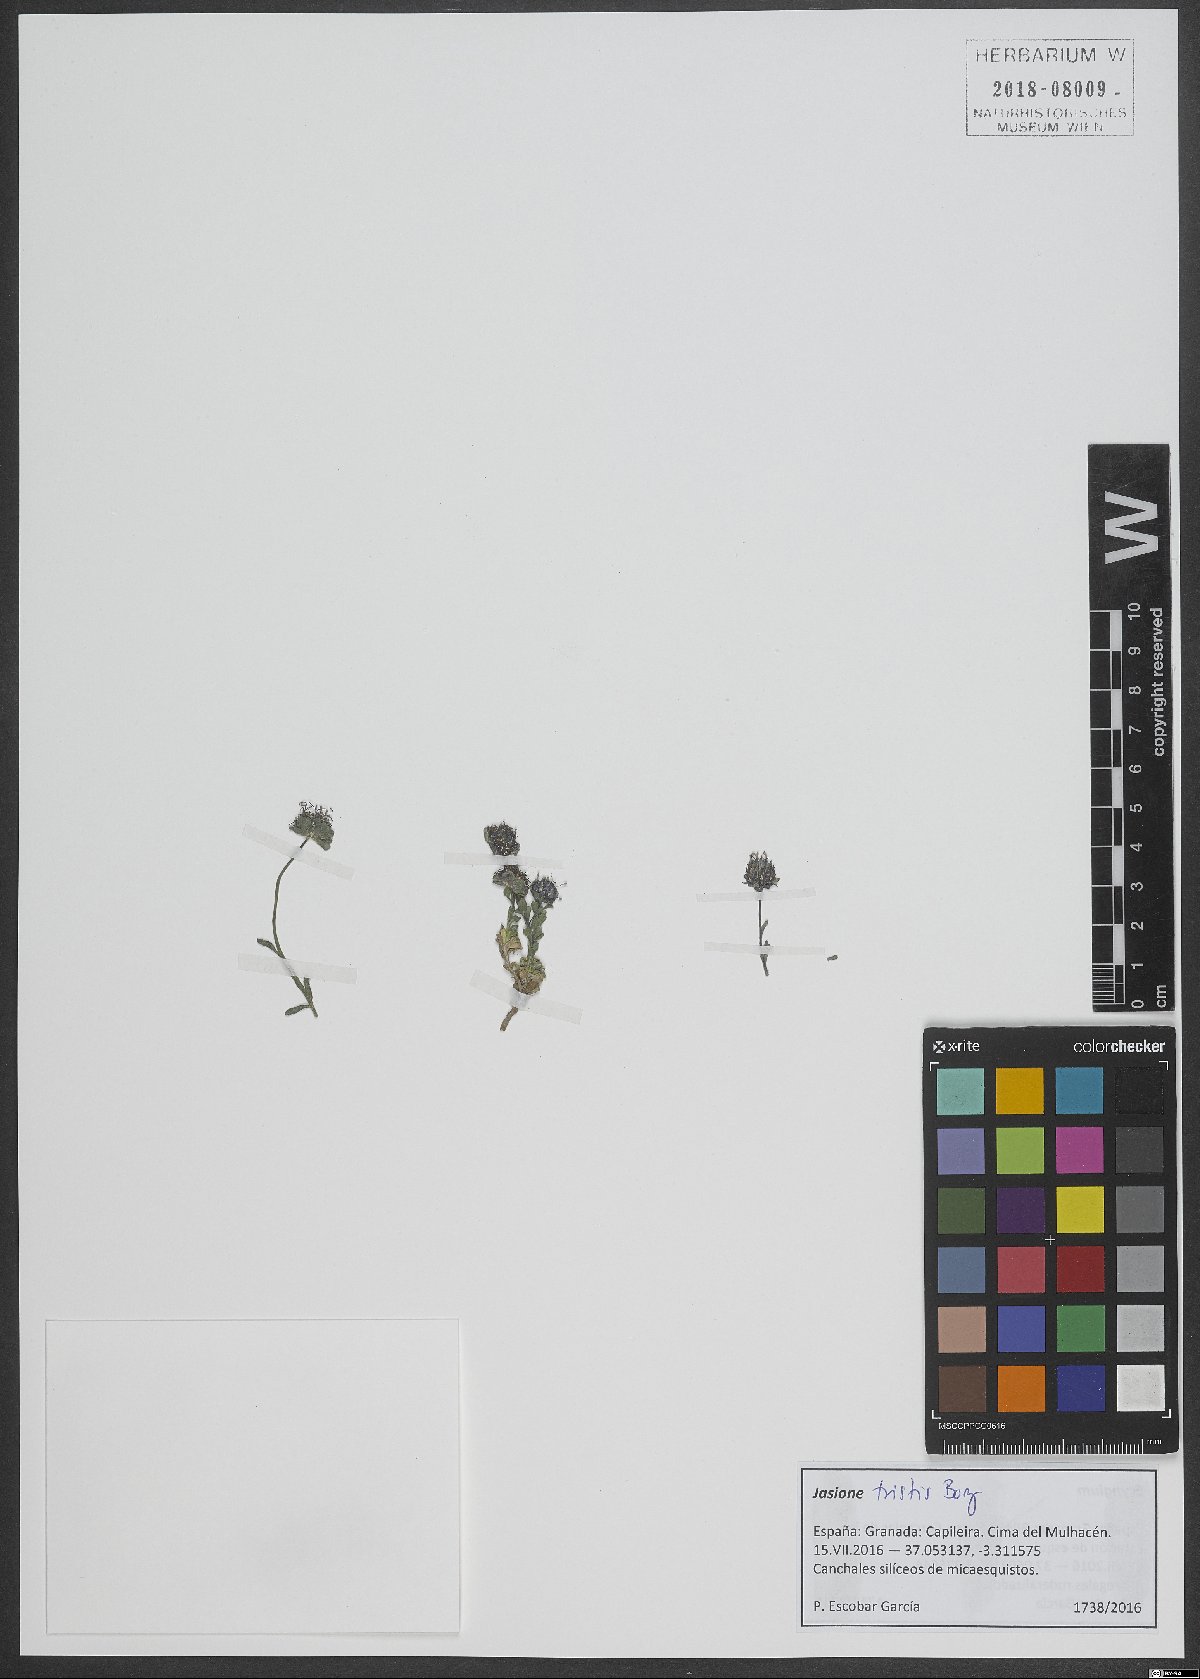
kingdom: Plantae
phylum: Tracheophyta
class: Magnoliopsida
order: Asterales
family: Campanulaceae
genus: Jasione
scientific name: Jasione crispa
